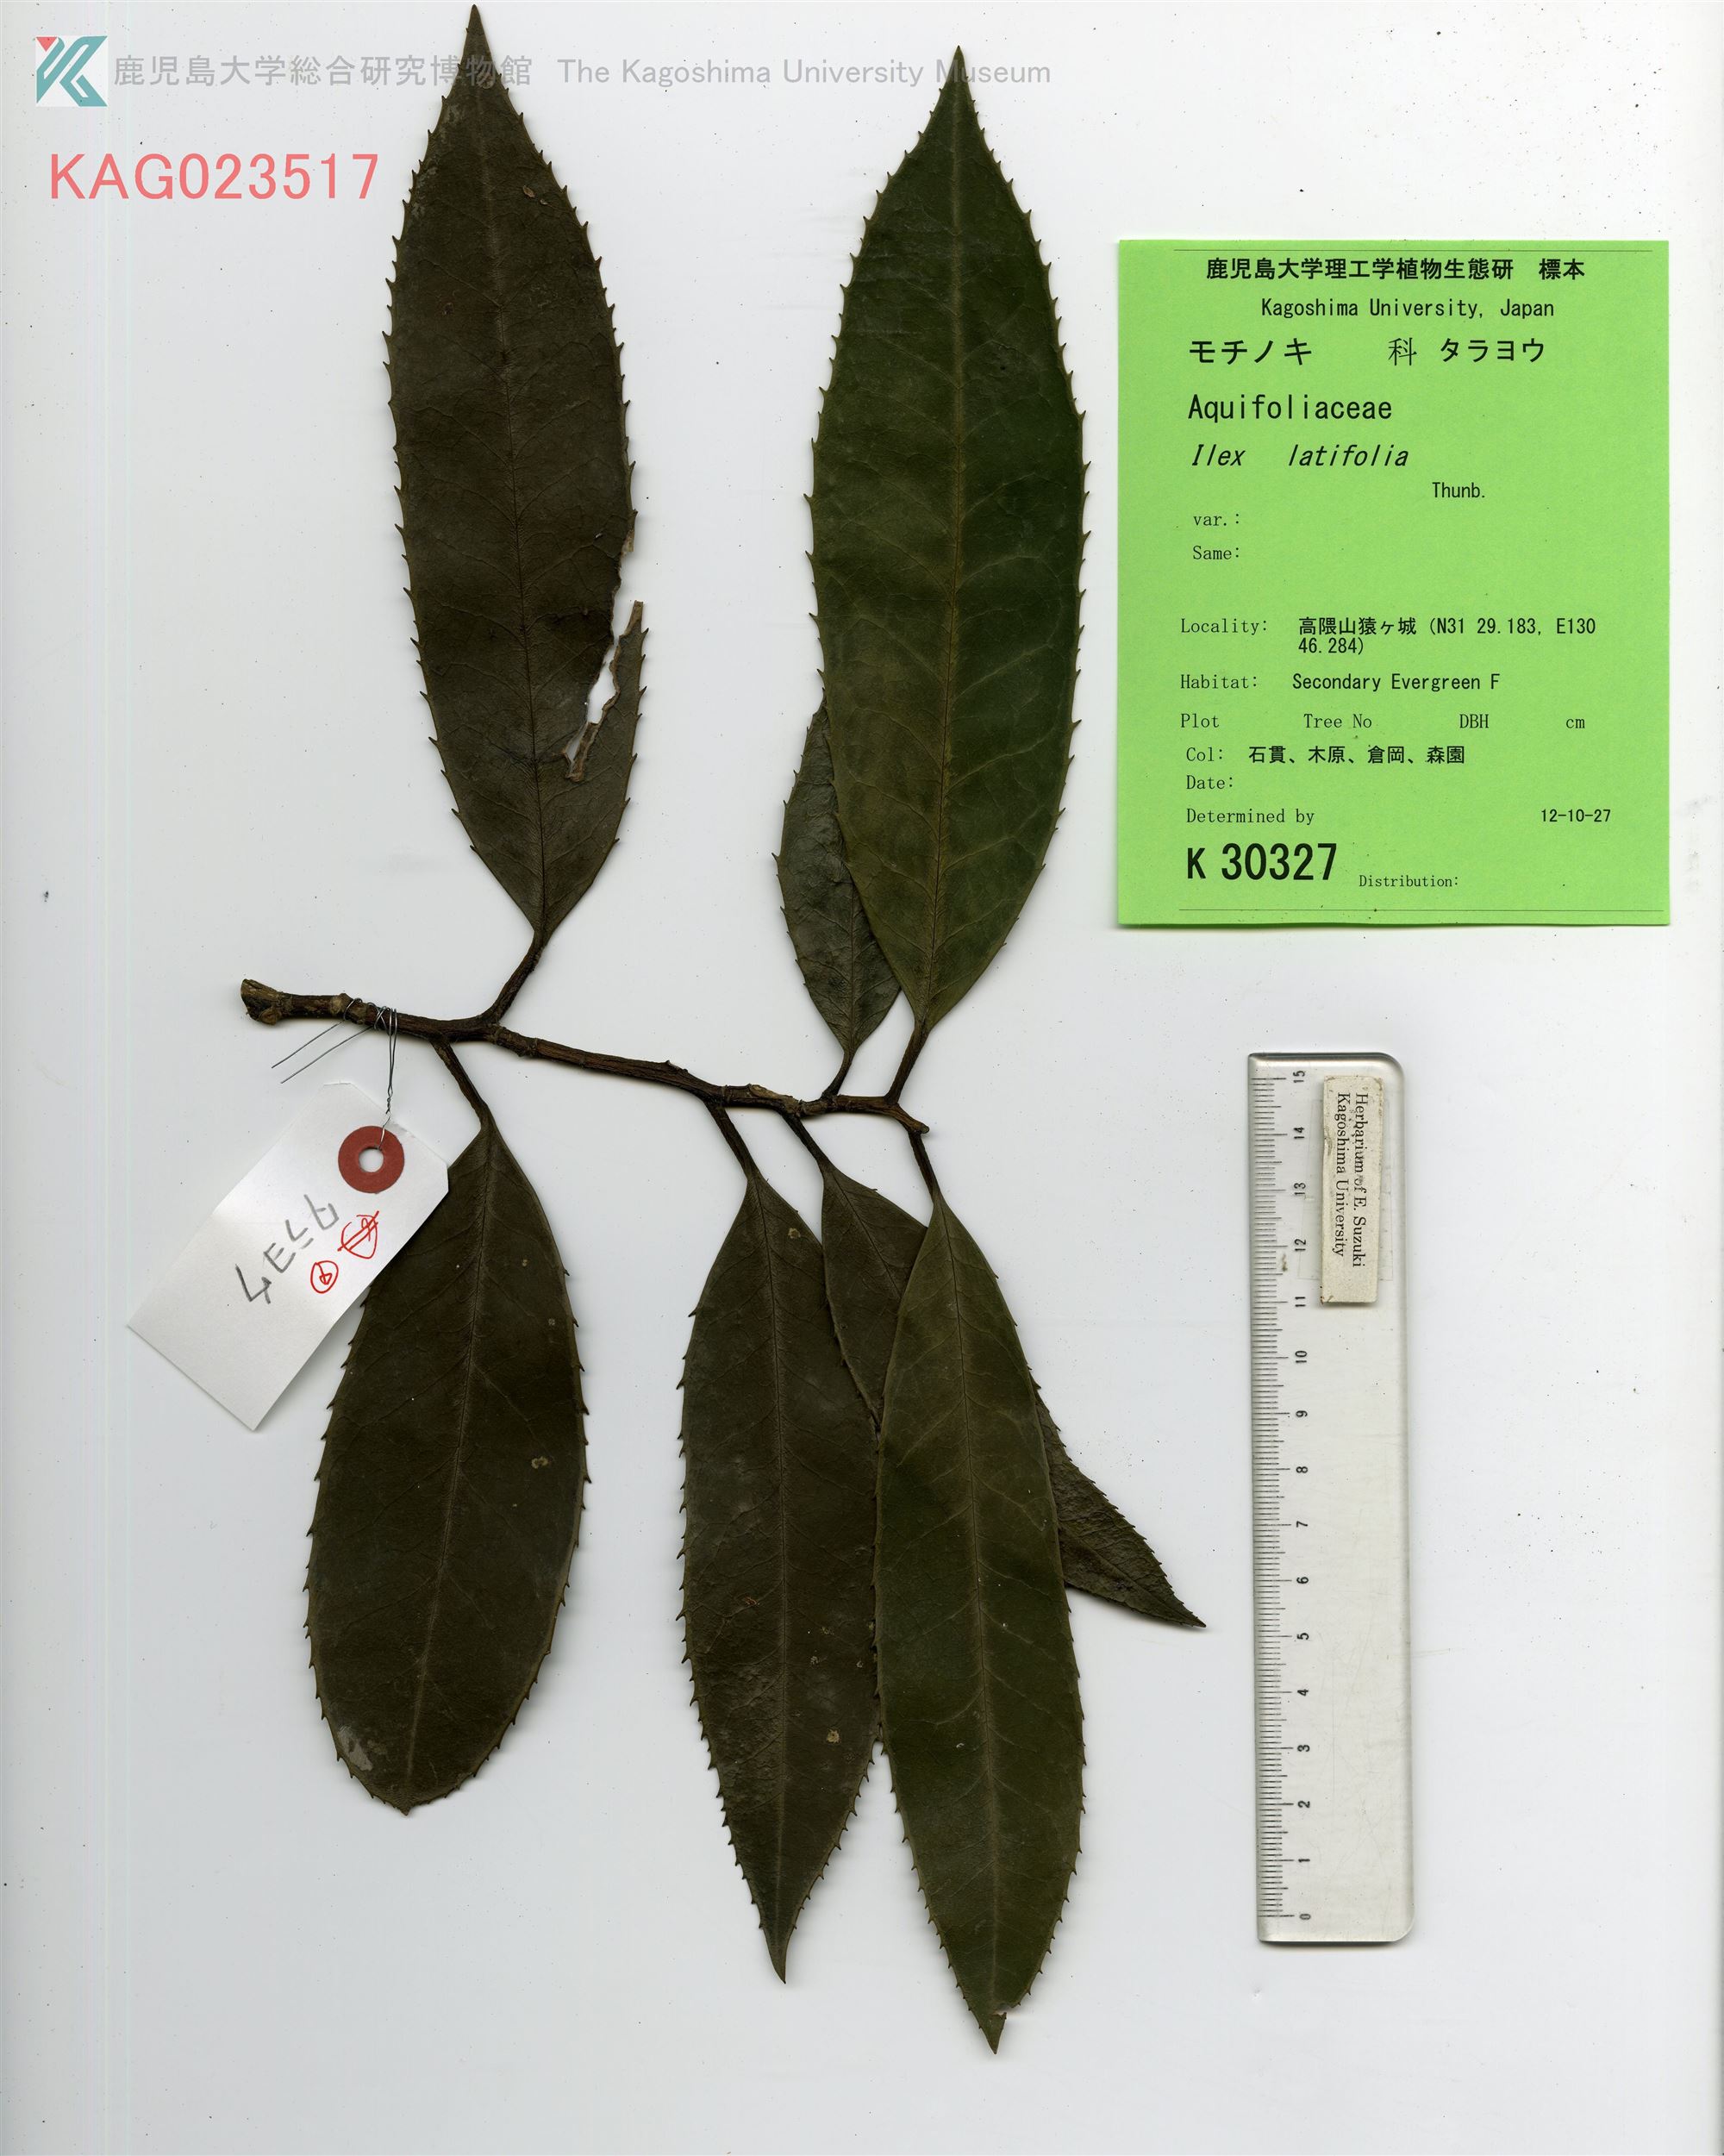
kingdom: Plantae
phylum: Tracheophyta
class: Magnoliopsida
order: Aquifoliales
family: Aquifoliaceae
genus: Ilex
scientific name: Ilex latifolia
